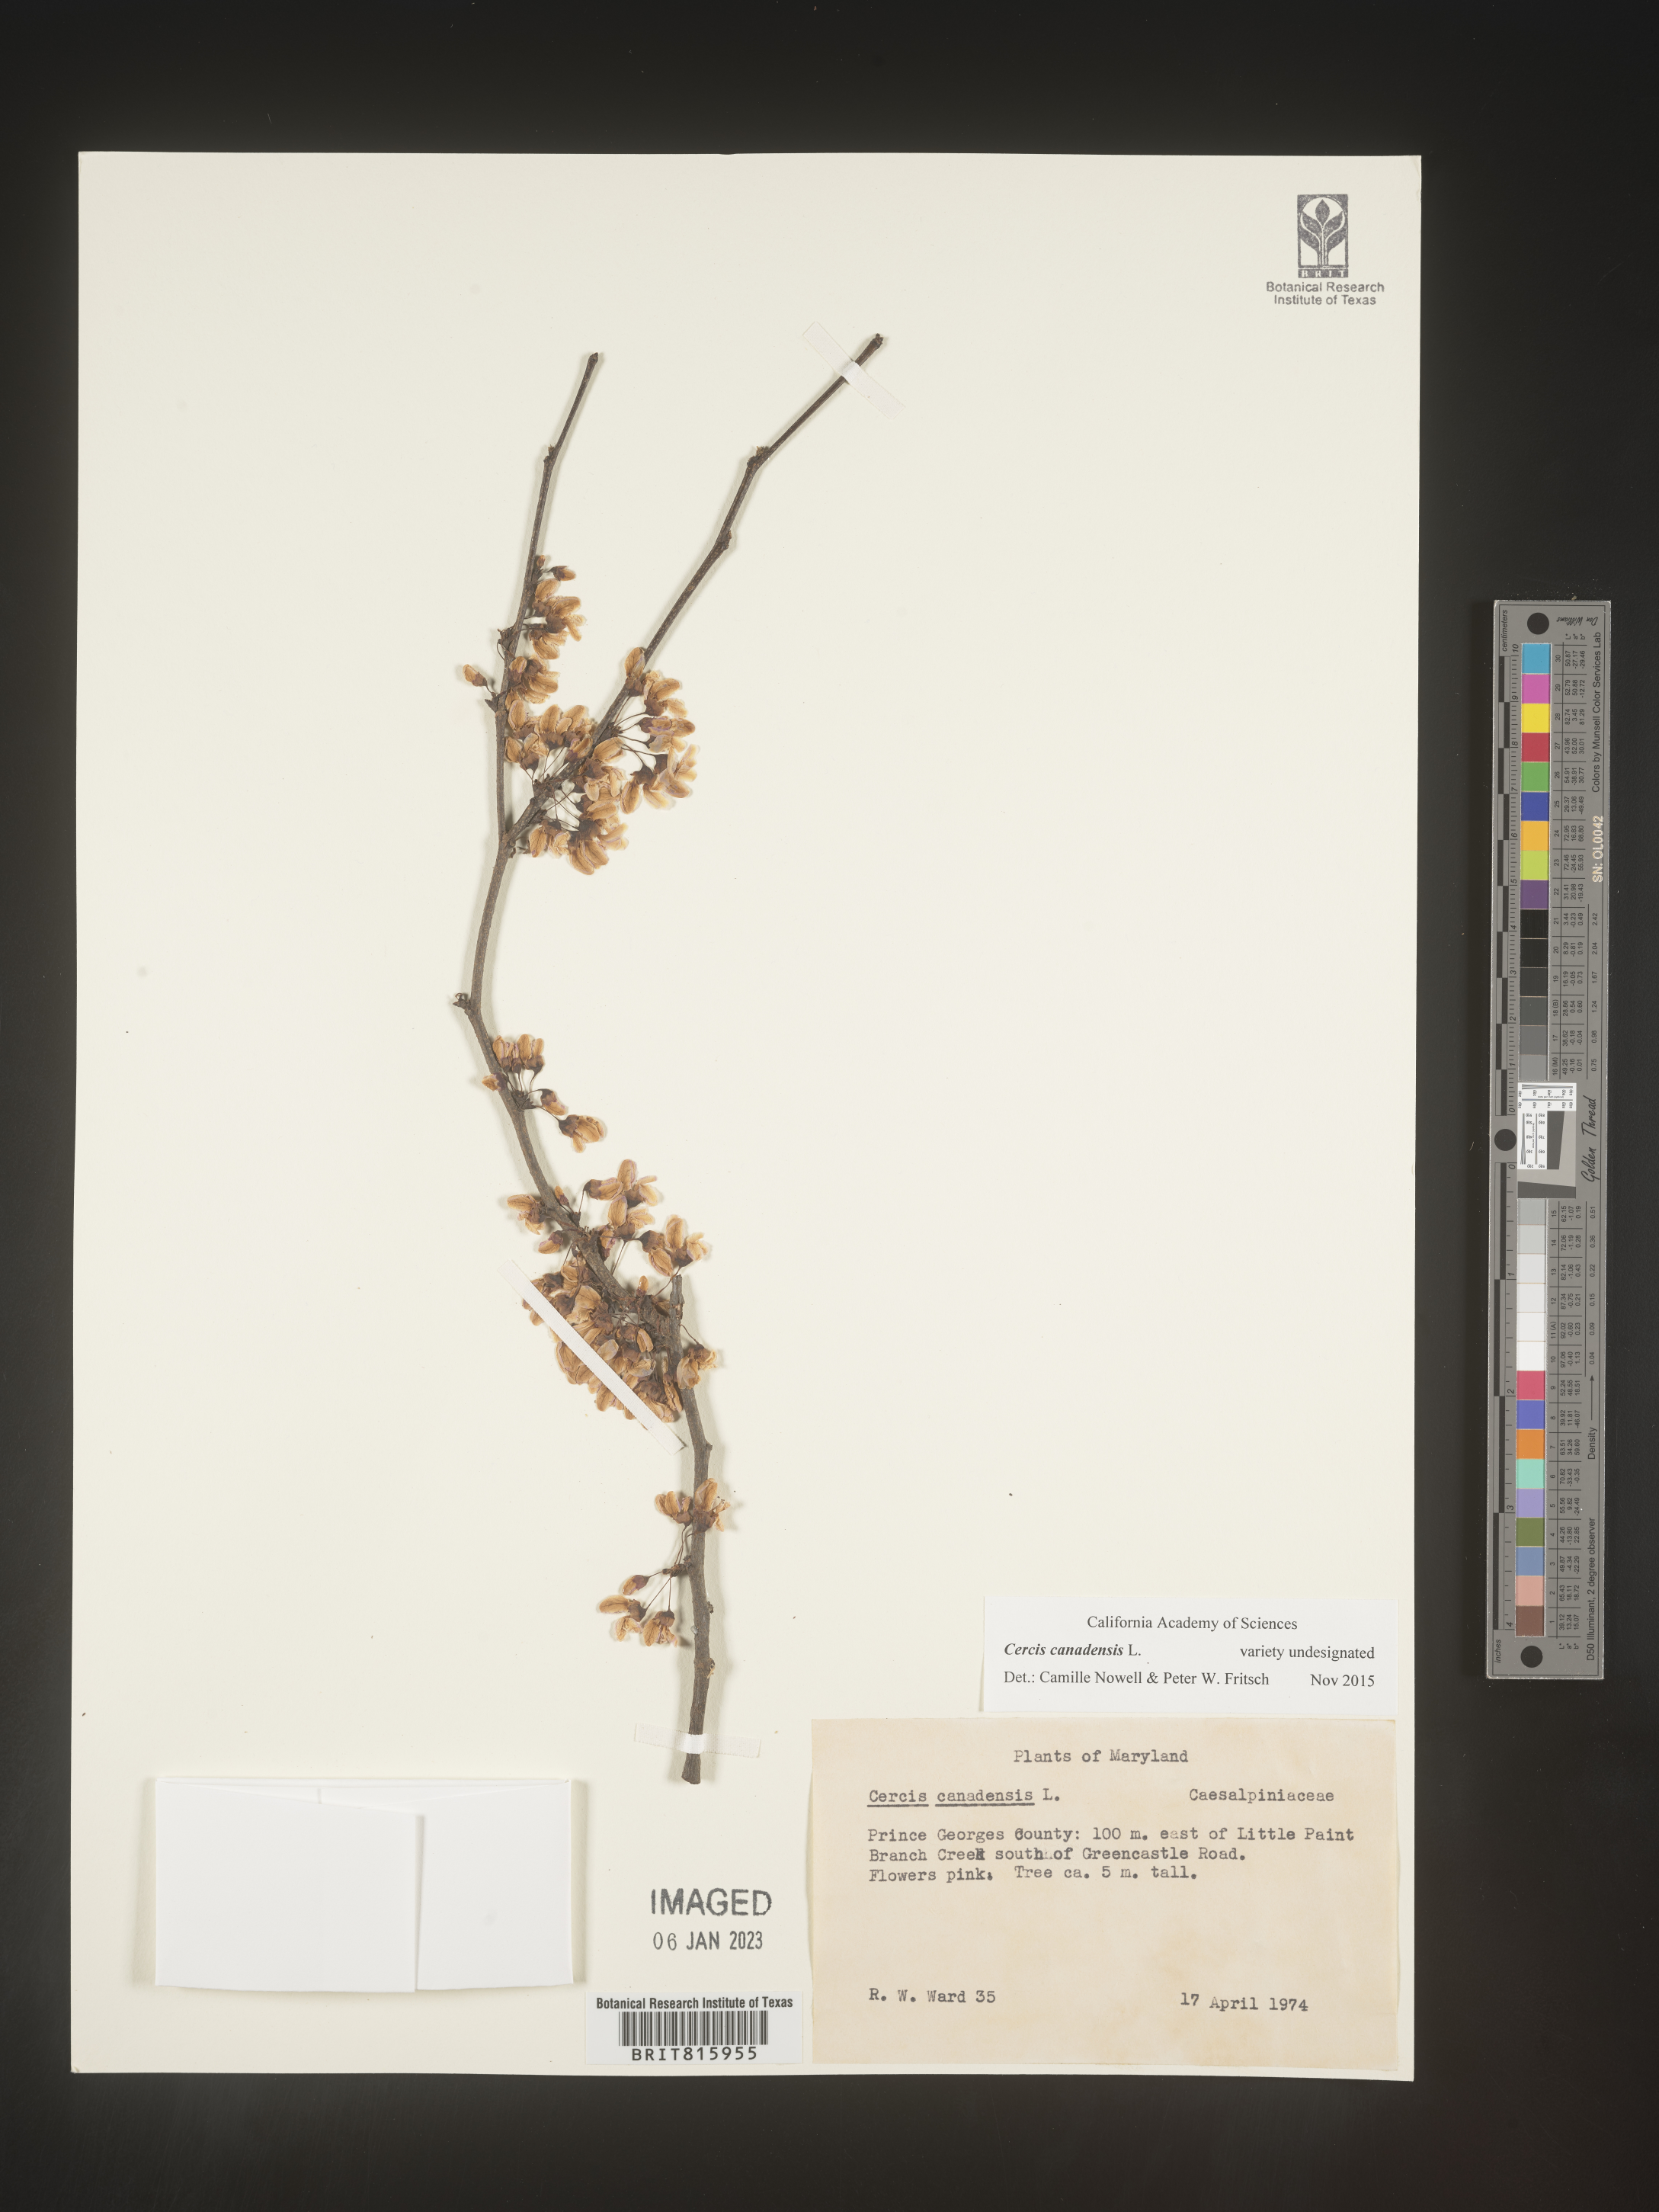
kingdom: Plantae
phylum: Tracheophyta
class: Magnoliopsida
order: Fabales
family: Fabaceae
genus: Cercis
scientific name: Cercis canadensis
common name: Eastern redbud
